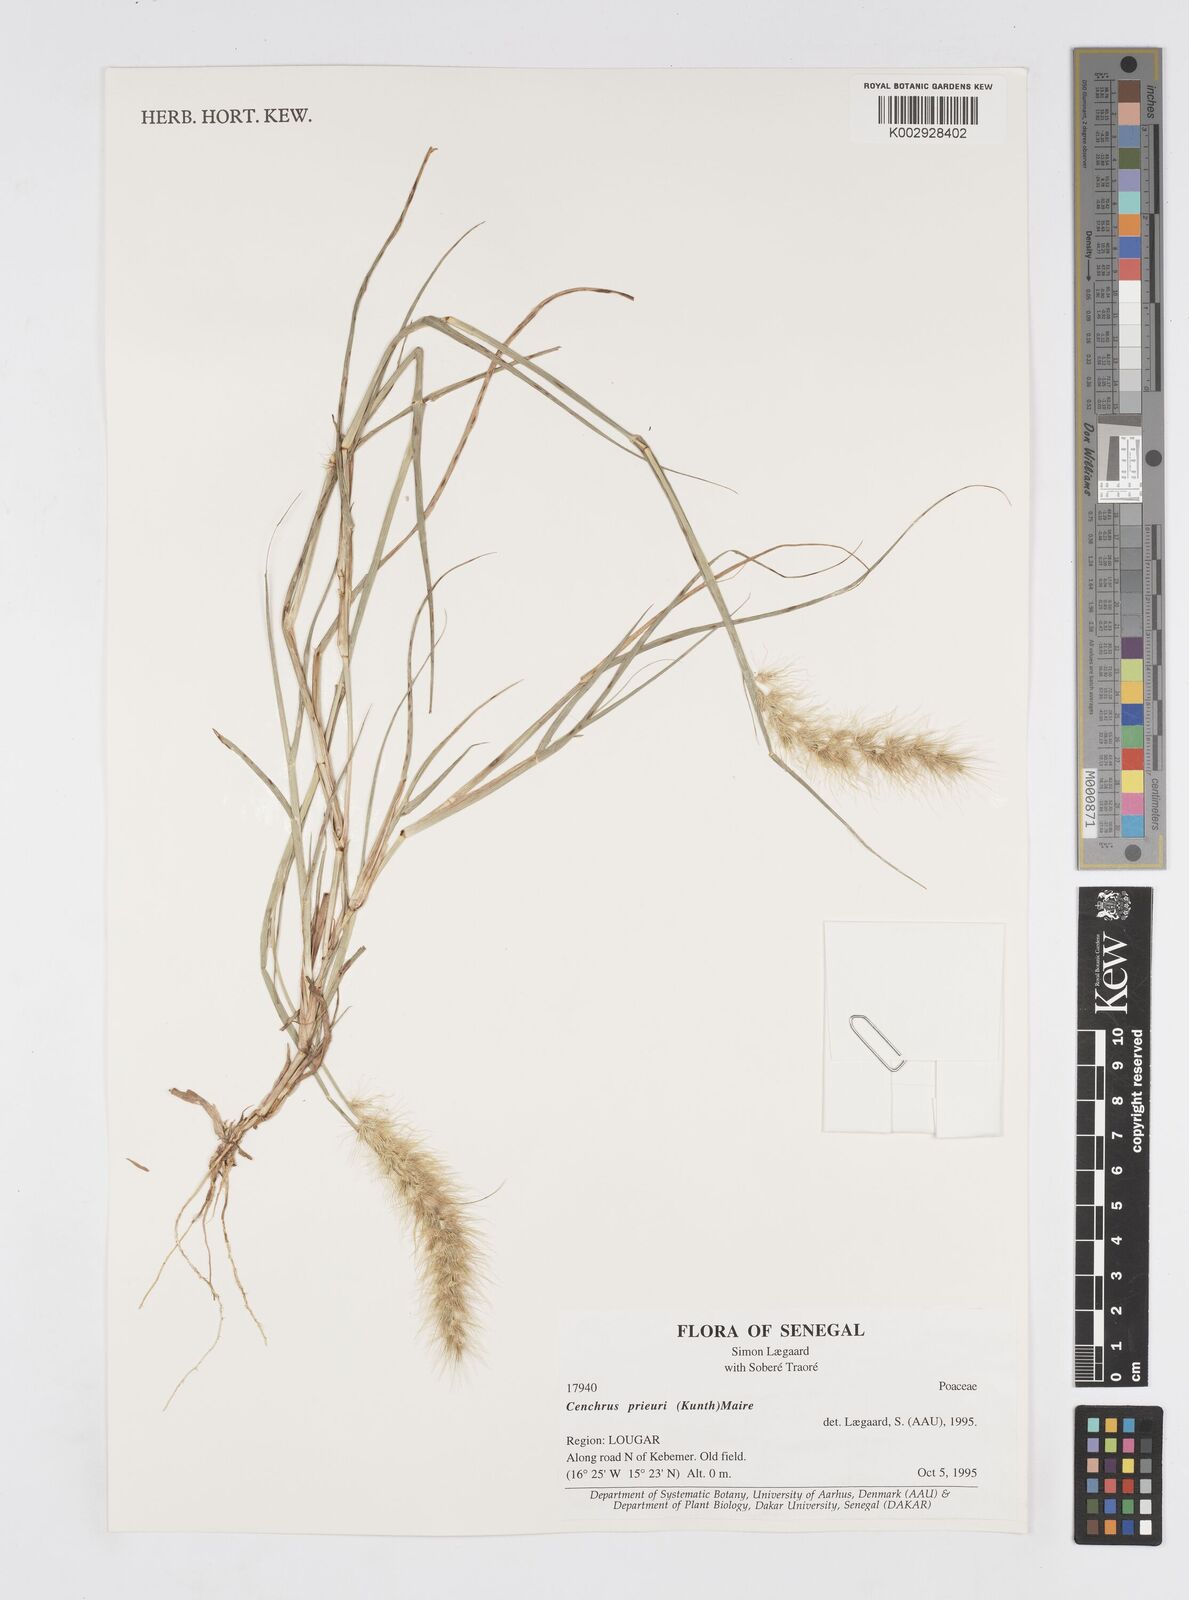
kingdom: Plantae
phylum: Tracheophyta
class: Liliopsida
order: Poales
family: Poaceae
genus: Cenchrus
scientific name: Cenchrus prieurii
